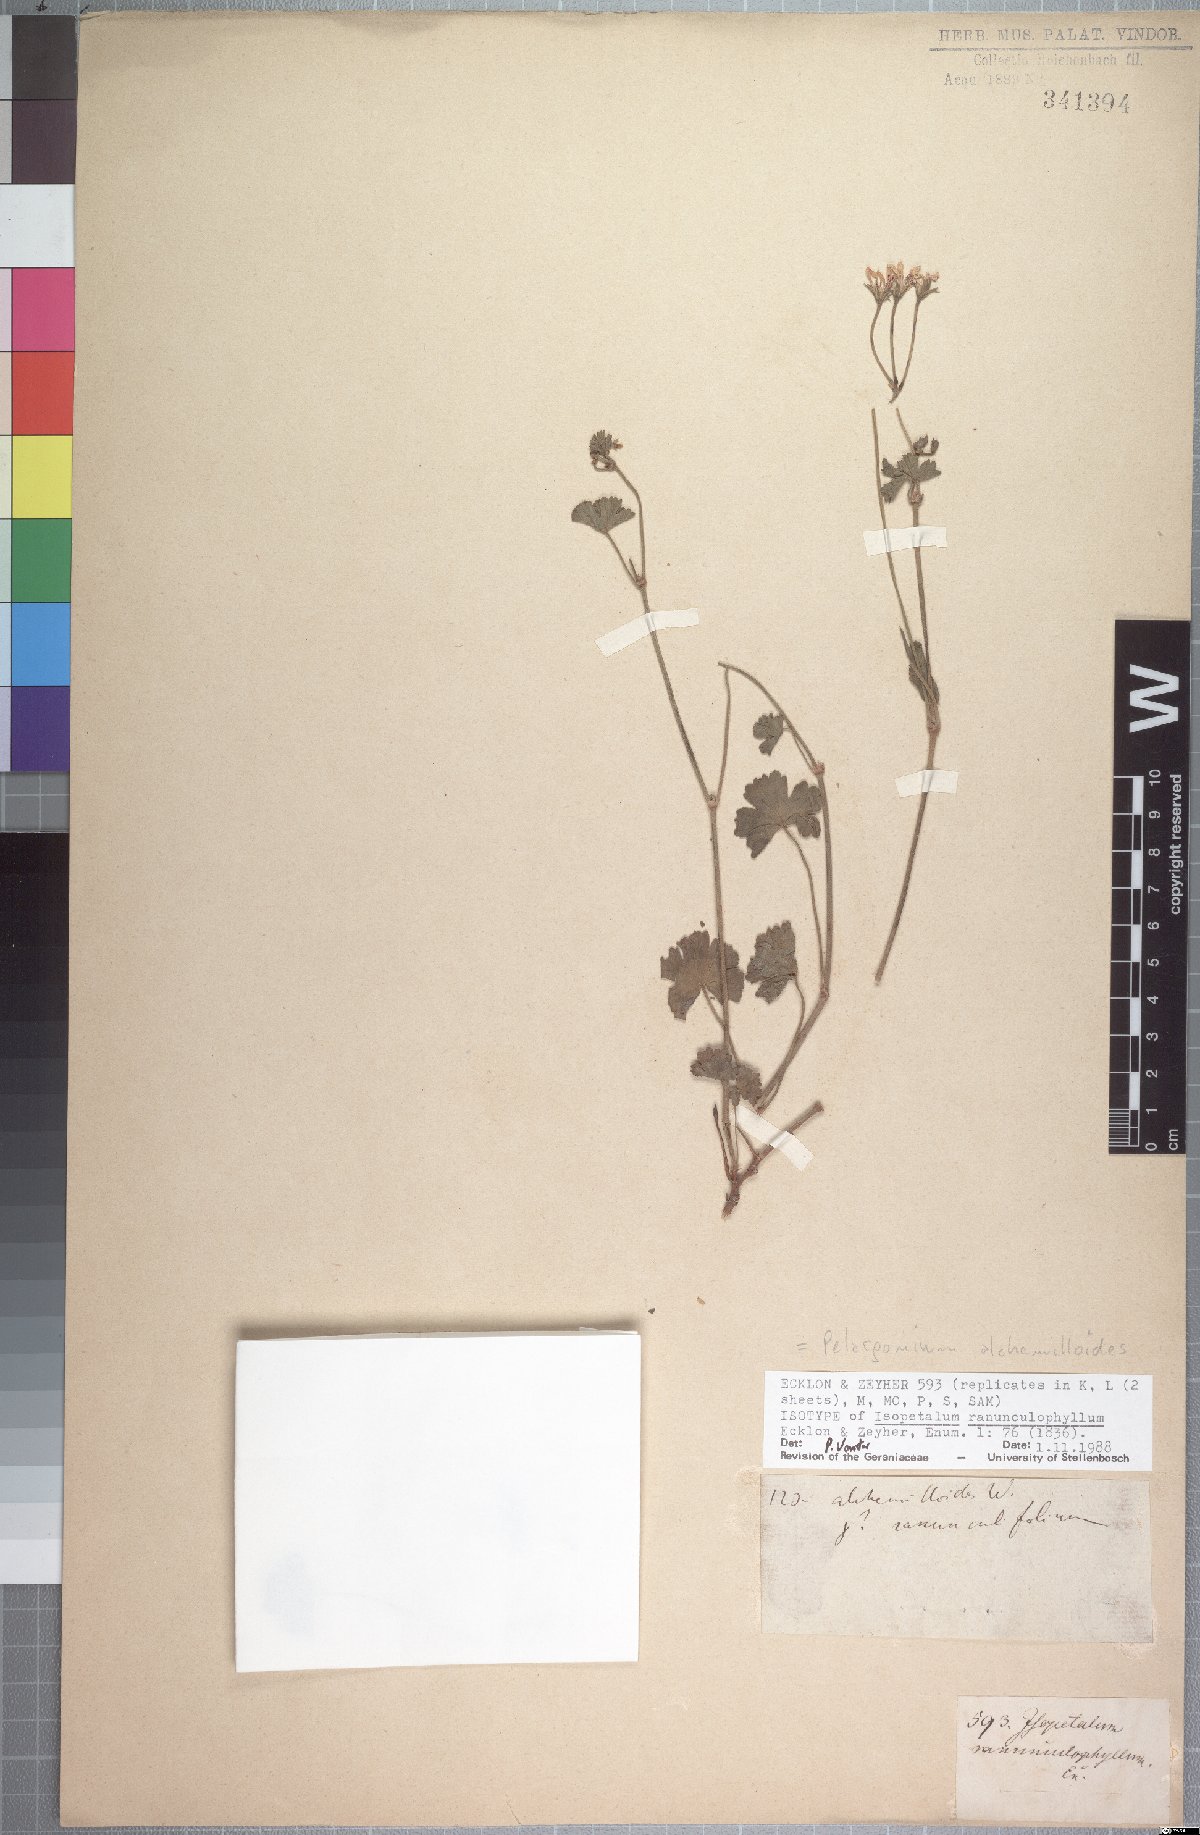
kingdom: Plantae
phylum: Tracheophyta
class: Magnoliopsida
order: Geraniales
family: Geraniaceae
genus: Pelargonium
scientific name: Pelargonium ranunculophyllum
